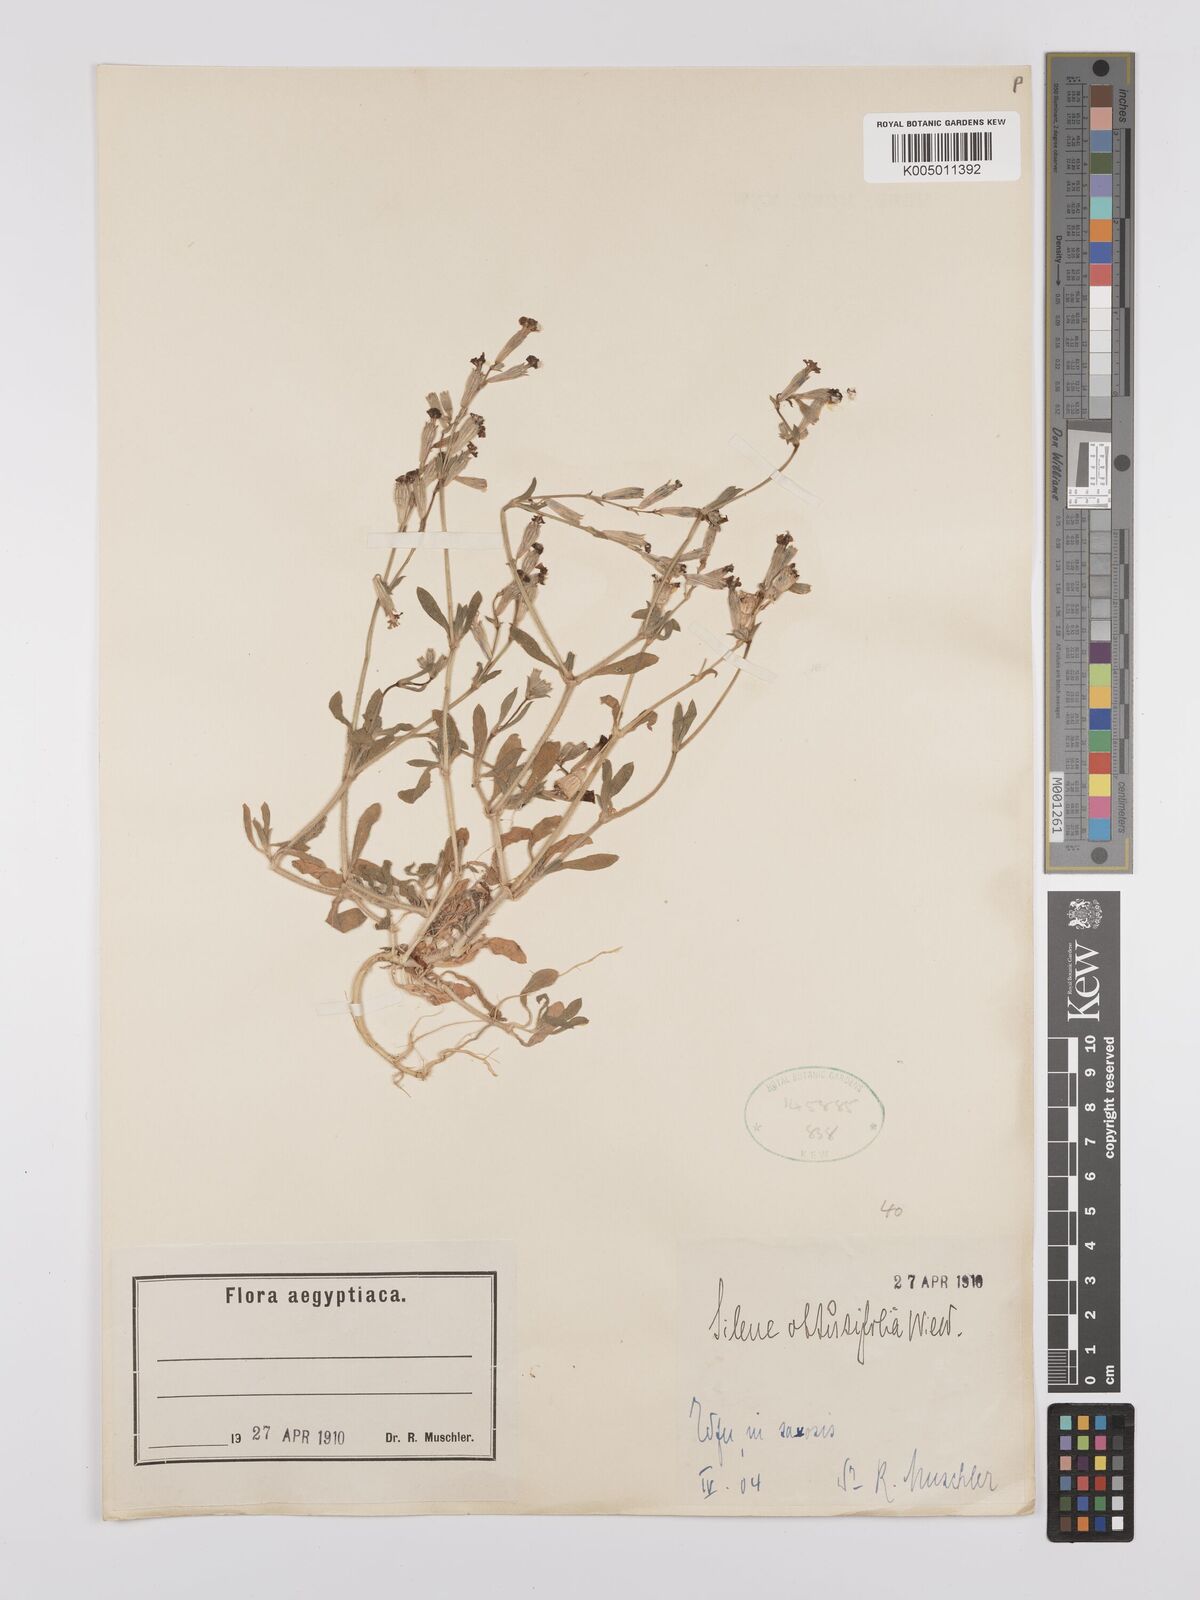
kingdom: Plantae
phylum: Tracheophyta
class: Magnoliopsida
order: Caryophyllales
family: Caryophyllaceae
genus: Silene
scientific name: Silene obtusifolia
